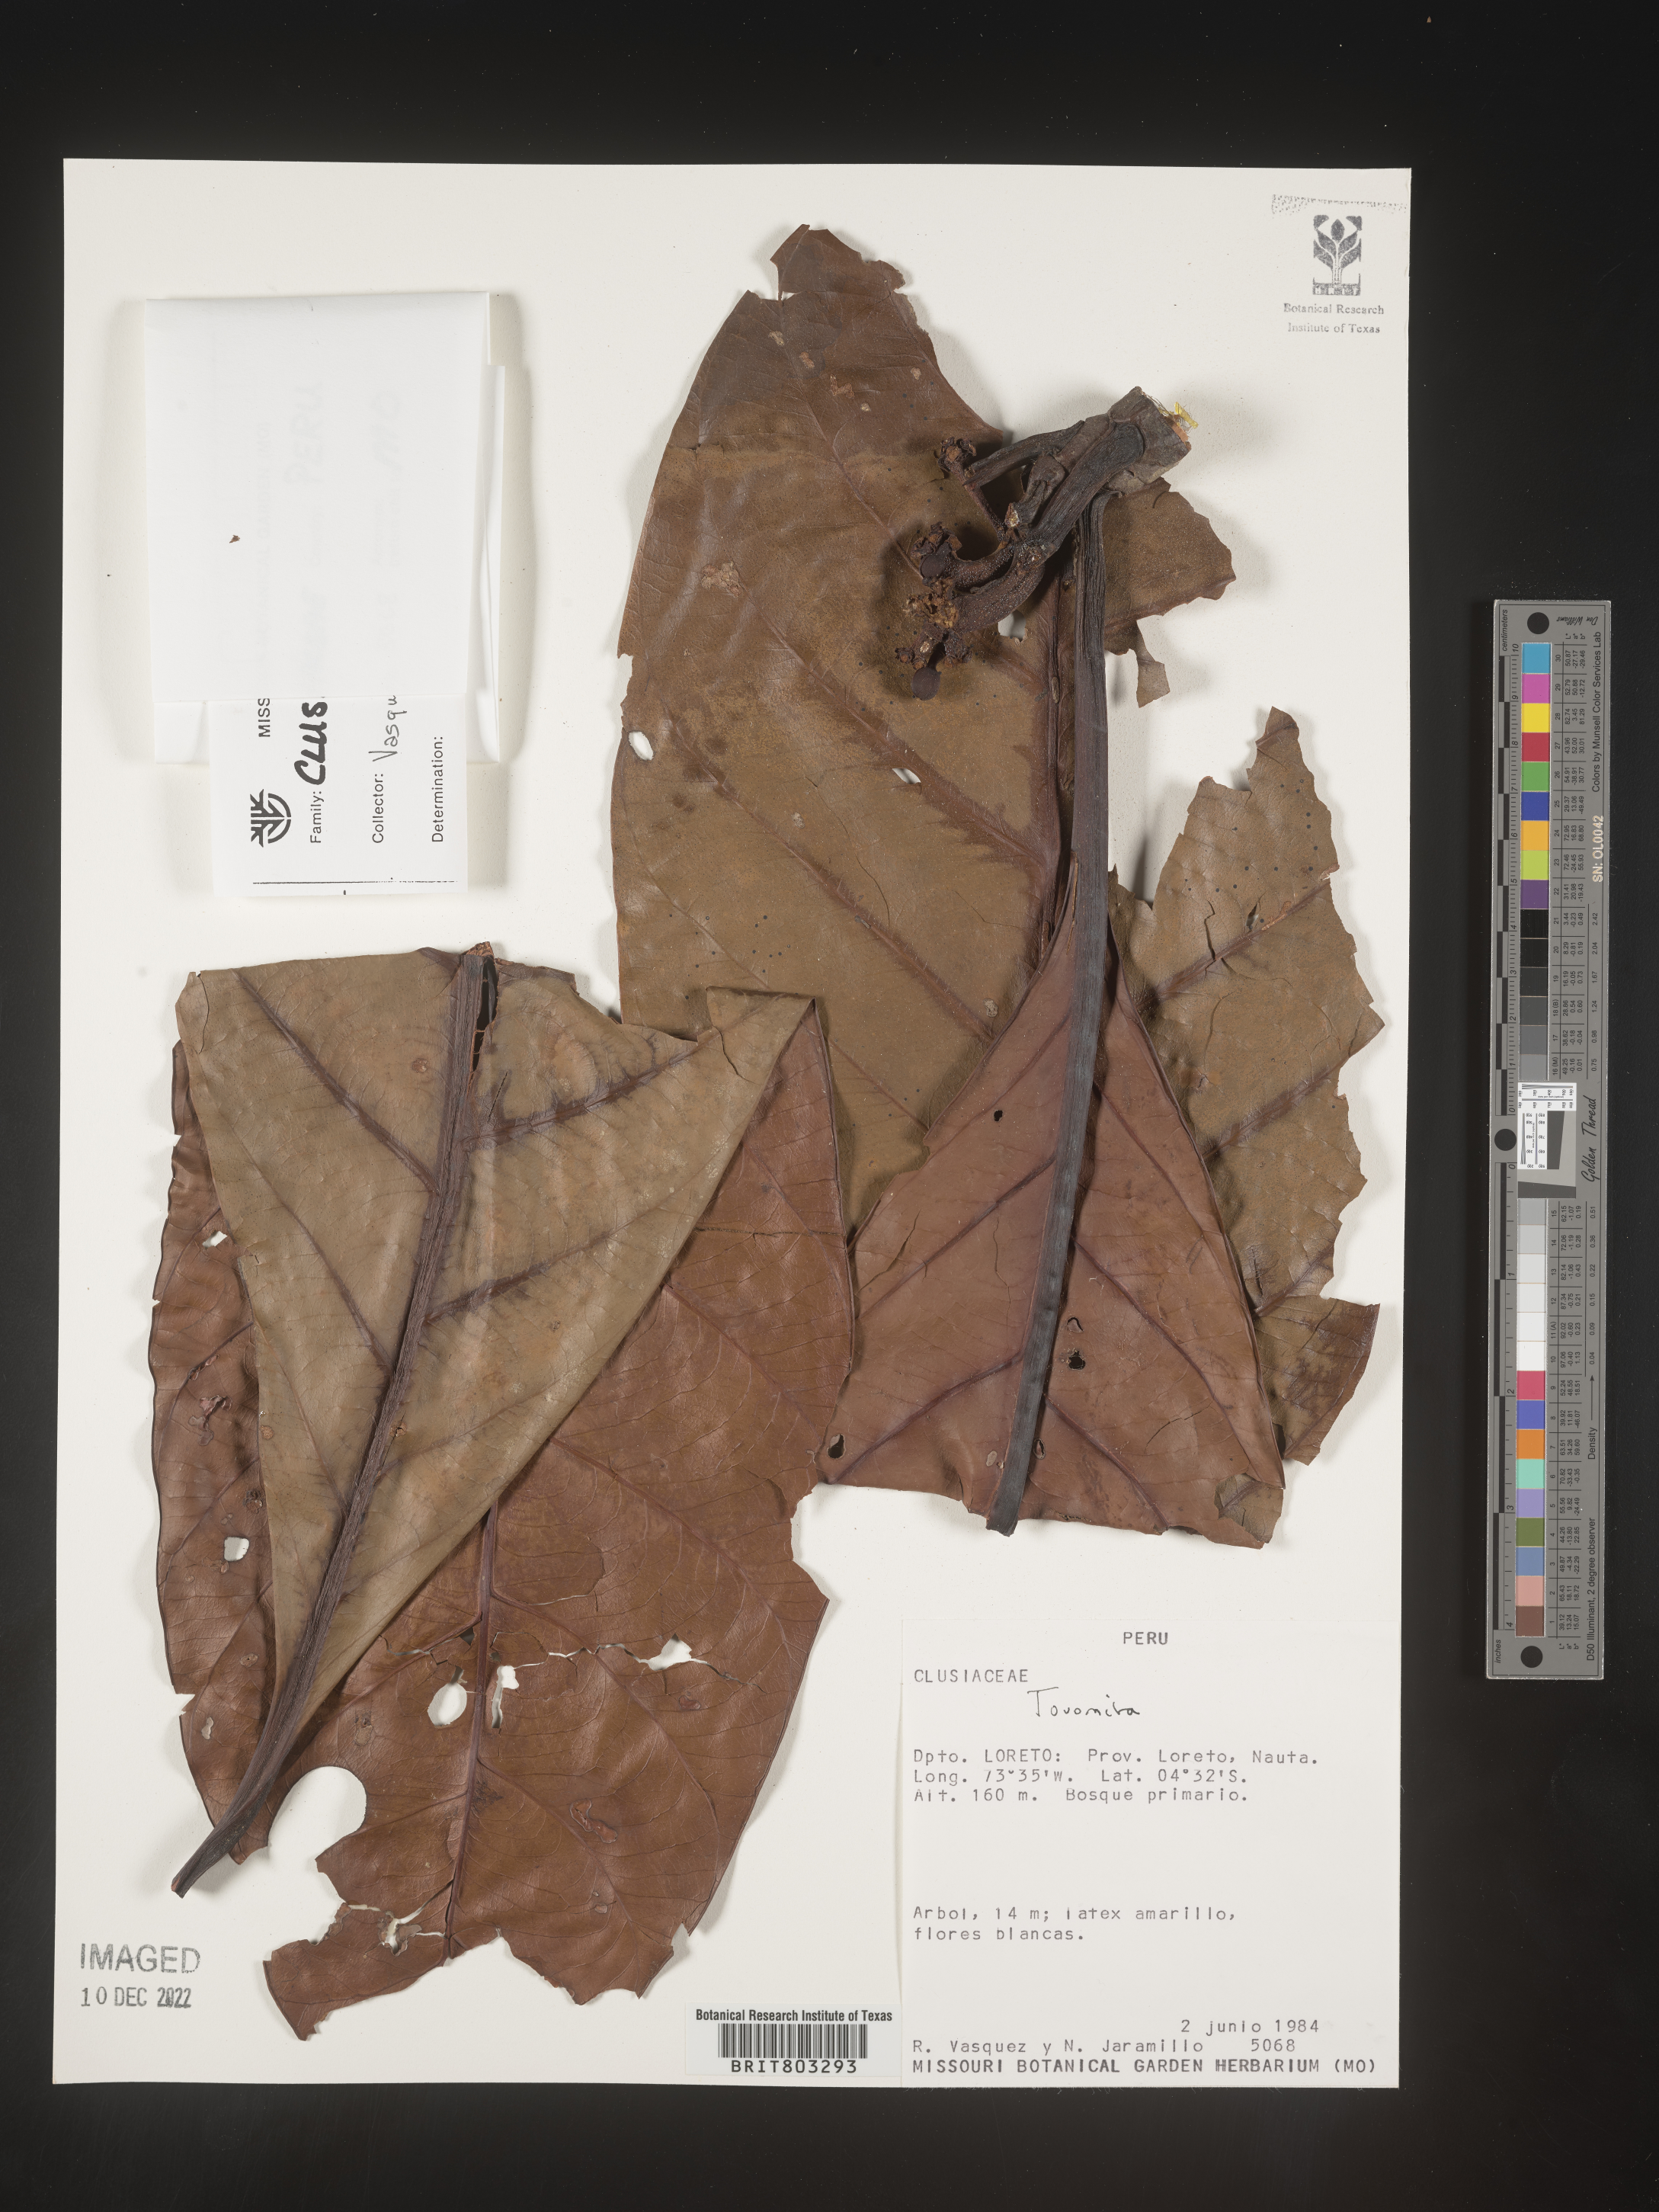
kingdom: Plantae
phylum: Tracheophyta
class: Magnoliopsida
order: Malpighiales
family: Clusiaceae
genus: Tovomita
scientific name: Tovomita
